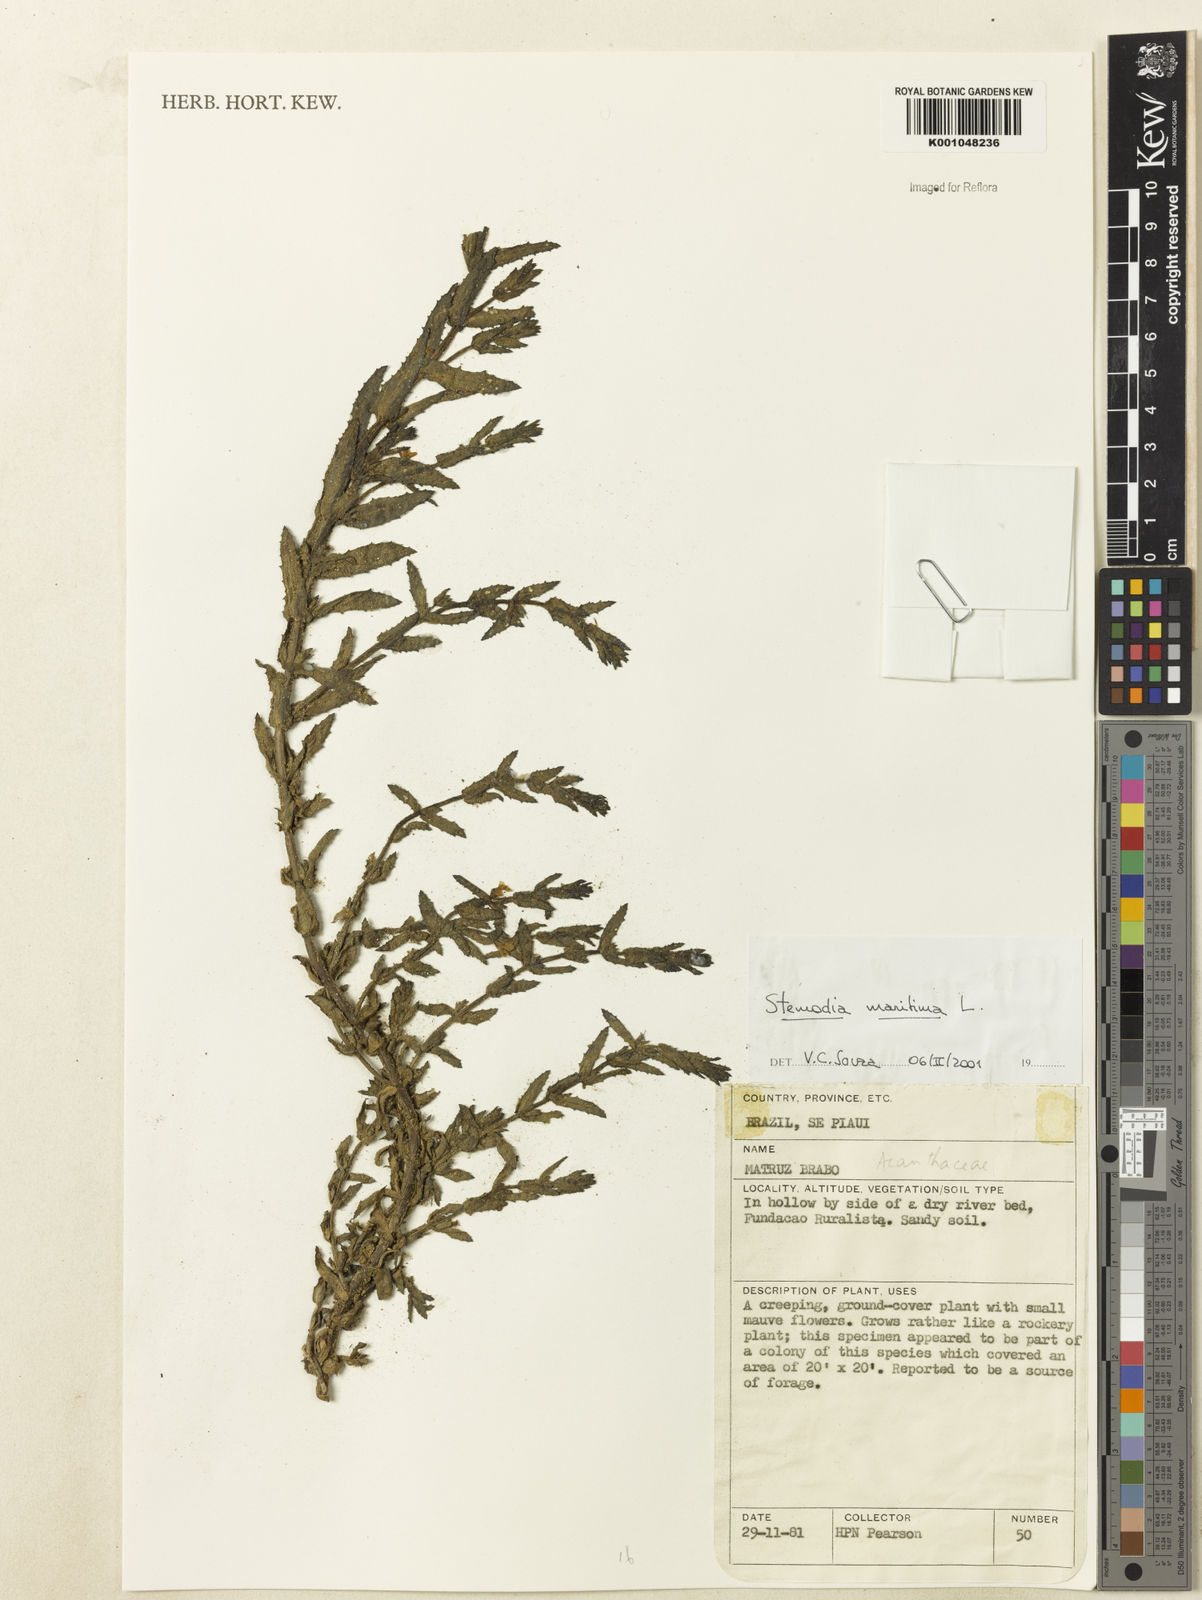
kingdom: Plantae
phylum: Tracheophyta
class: Magnoliopsida
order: Lamiales
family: Plantaginaceae
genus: Stemodia
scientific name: Stemodia maritima
